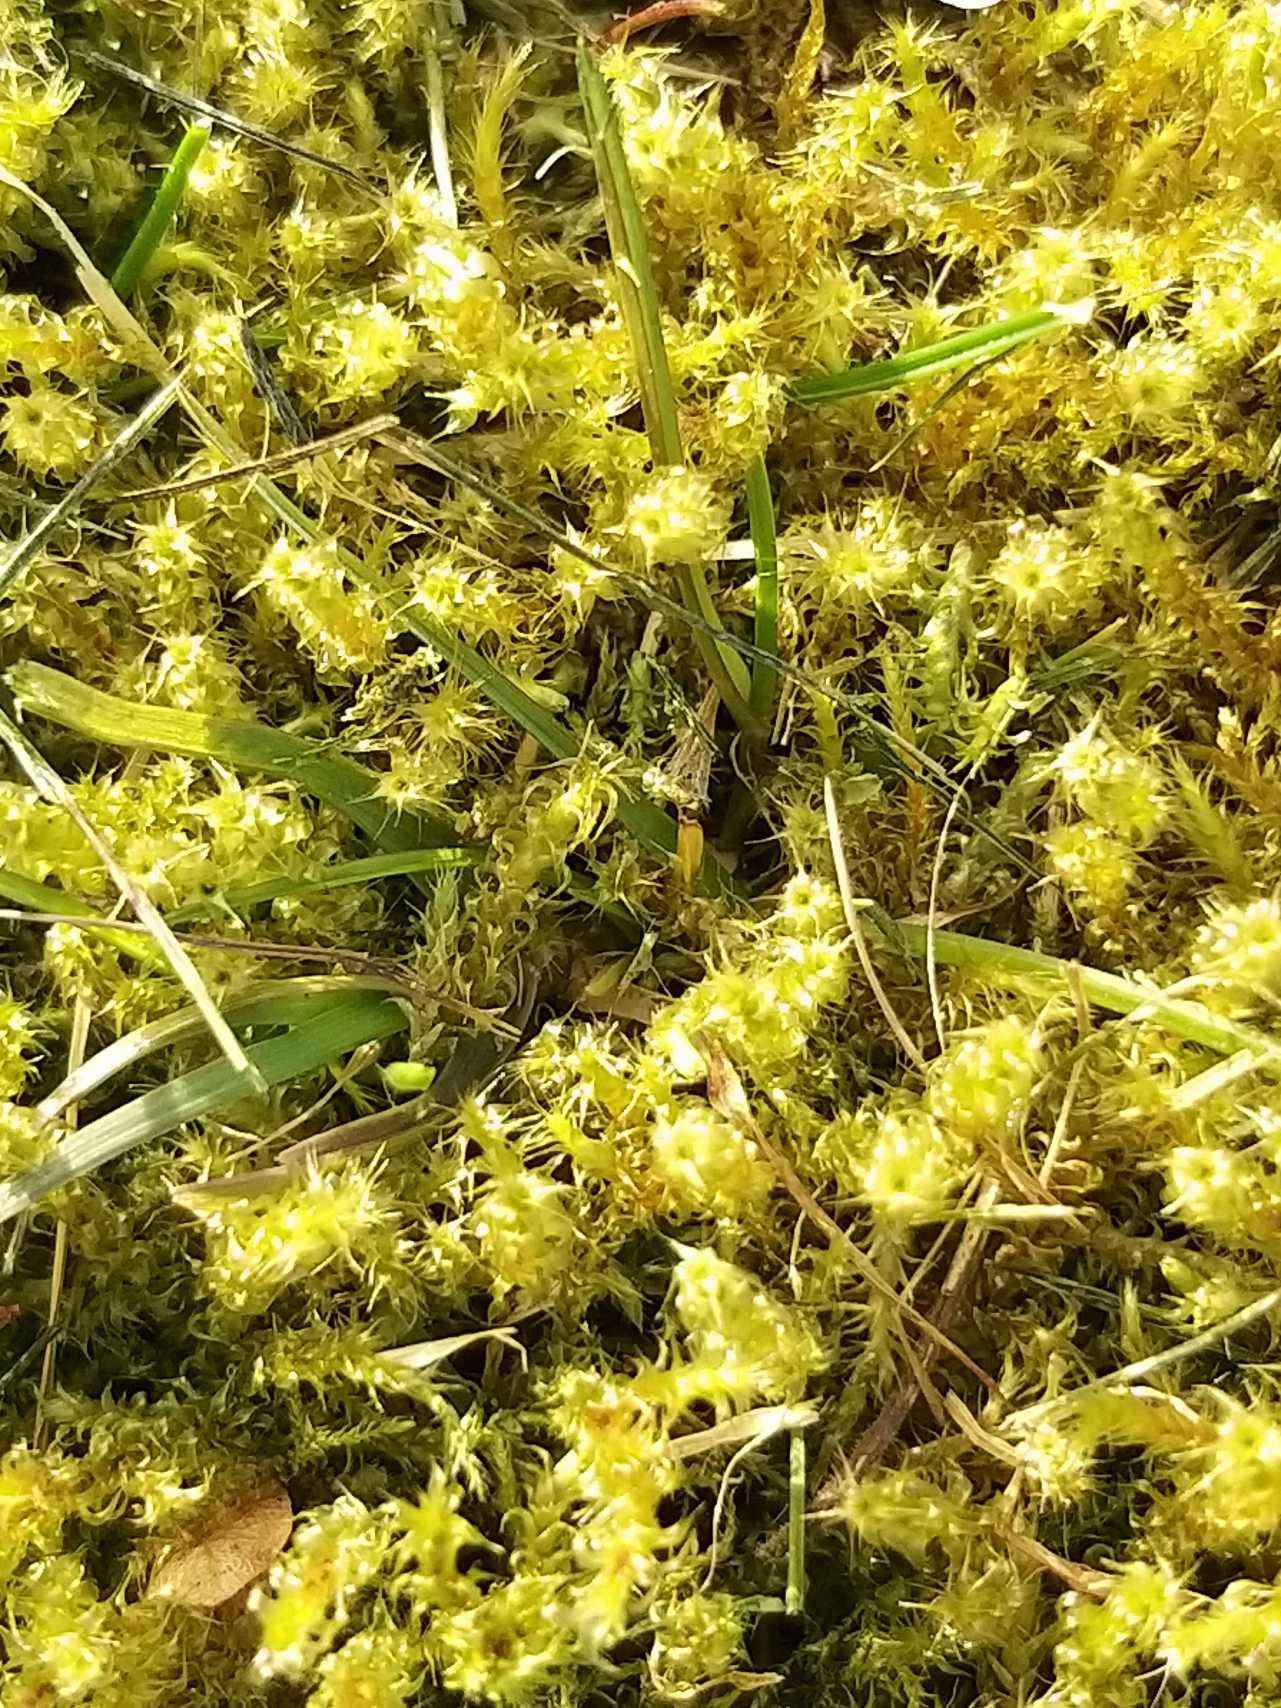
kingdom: Plantae
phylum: Bryophyta
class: Bryopsida
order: Hypnales
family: Hylocomiaceae
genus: Rhytidiadelphus
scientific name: Rhytidiadelphus squarrosus
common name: Plæne-kransemos
